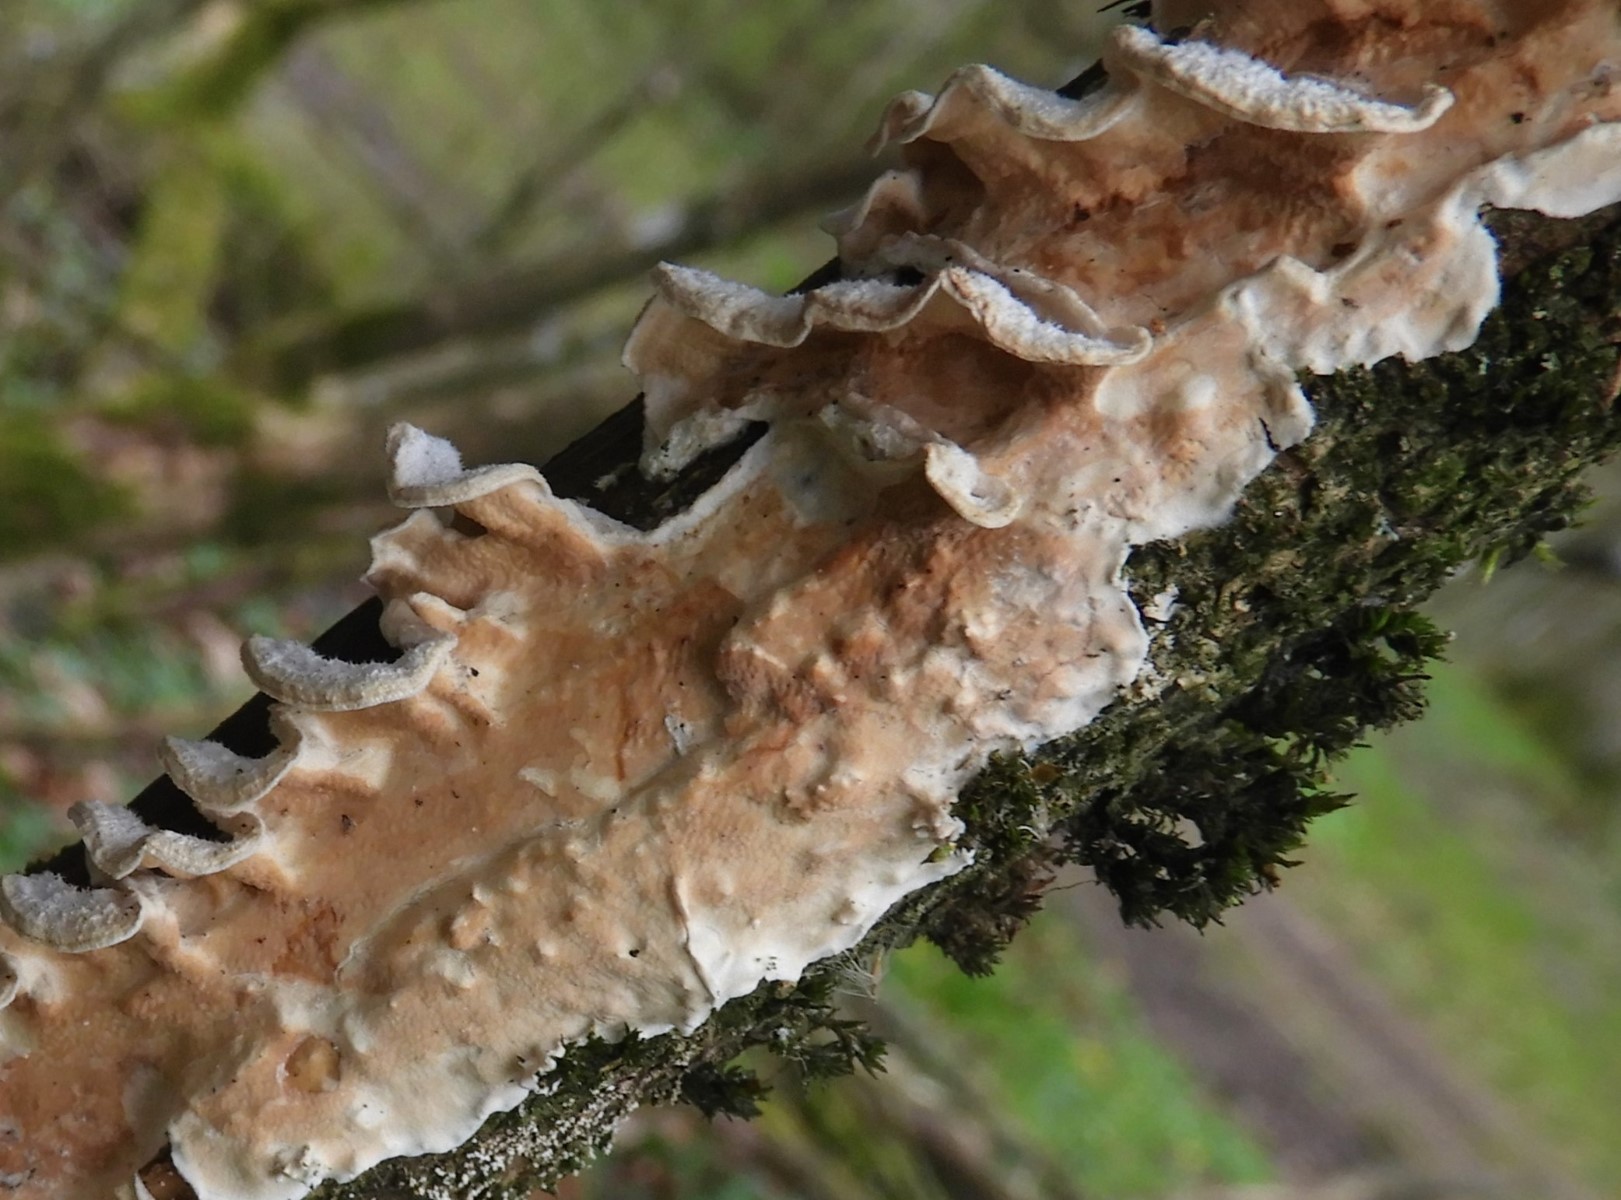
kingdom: Fungi
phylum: Basidiomycota
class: Agaricomycetes
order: Polyporales
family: Irpicaceae
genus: Byssomerulius
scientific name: Byssomerulius corium
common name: læder-åresvamp
